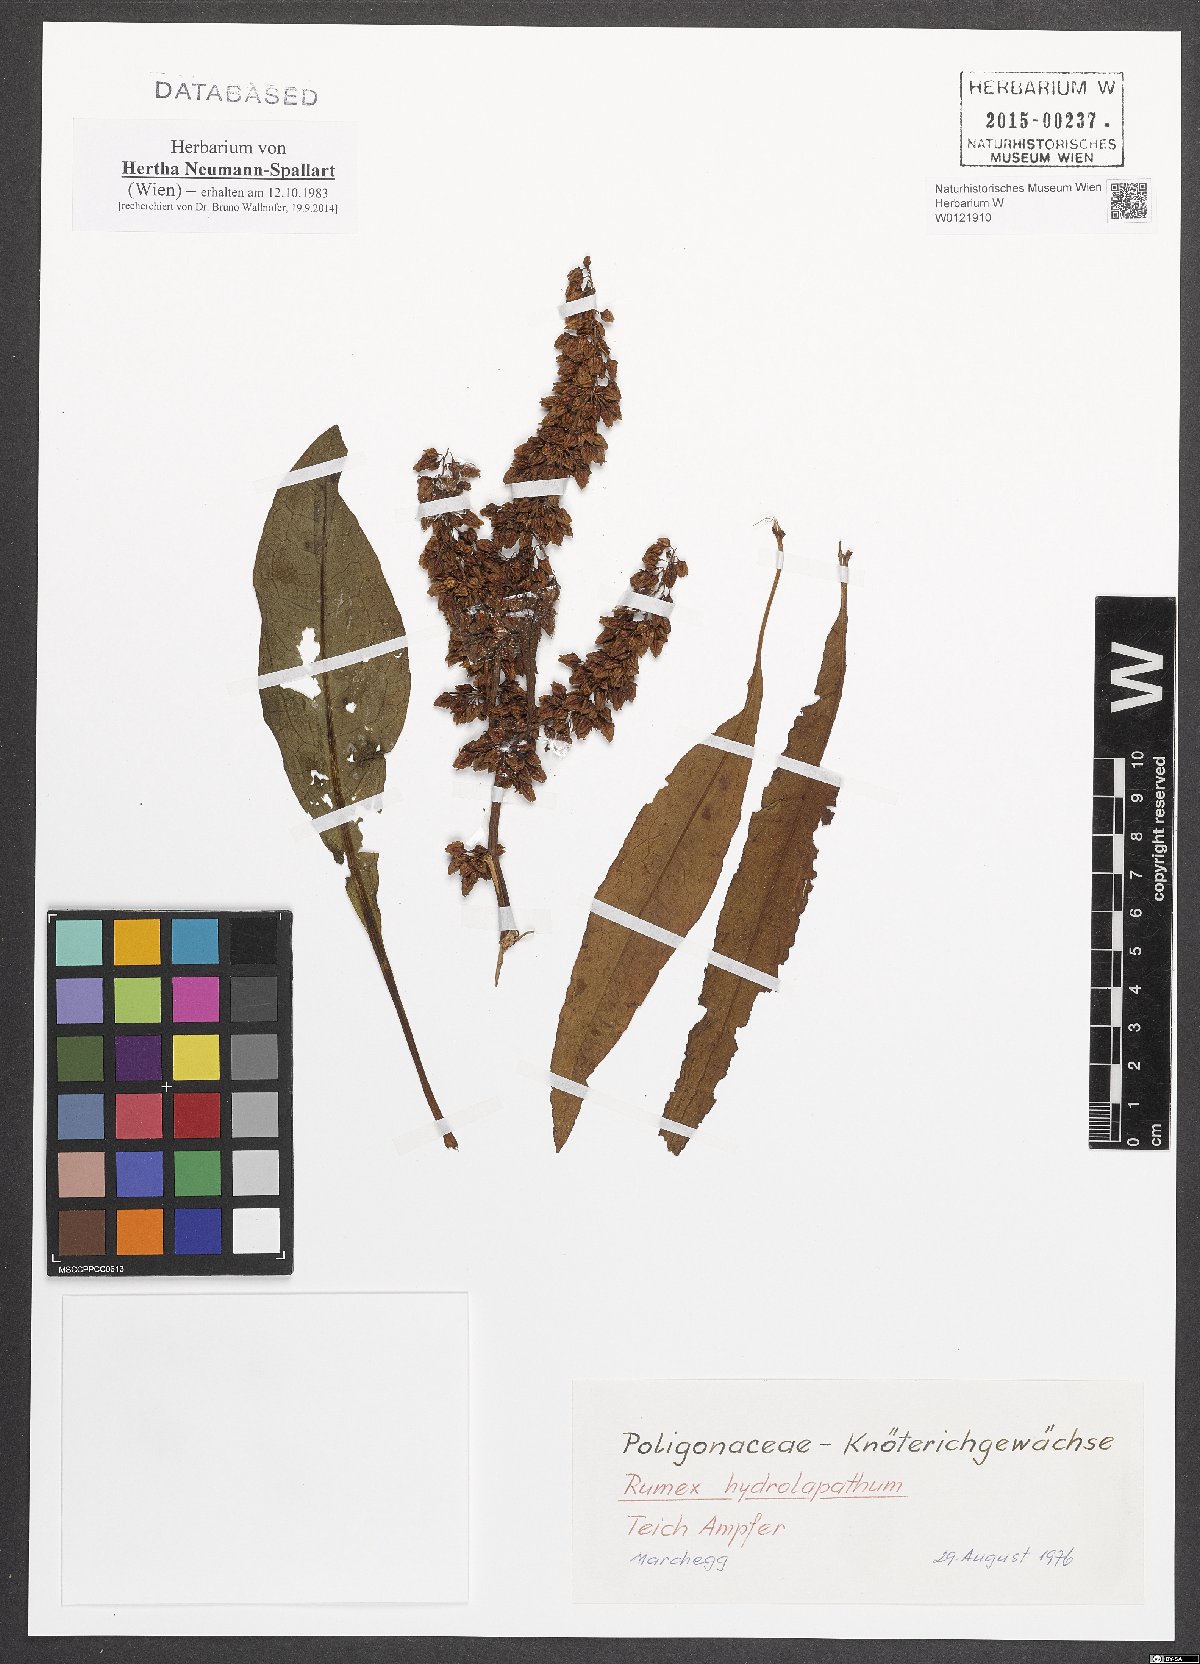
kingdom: Plantae
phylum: Tracheophyta
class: Magnoliopsida
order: Caryophyllales
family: Polygonaceae
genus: Rumex
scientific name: Rumex hydrolapathum
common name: Water dock
